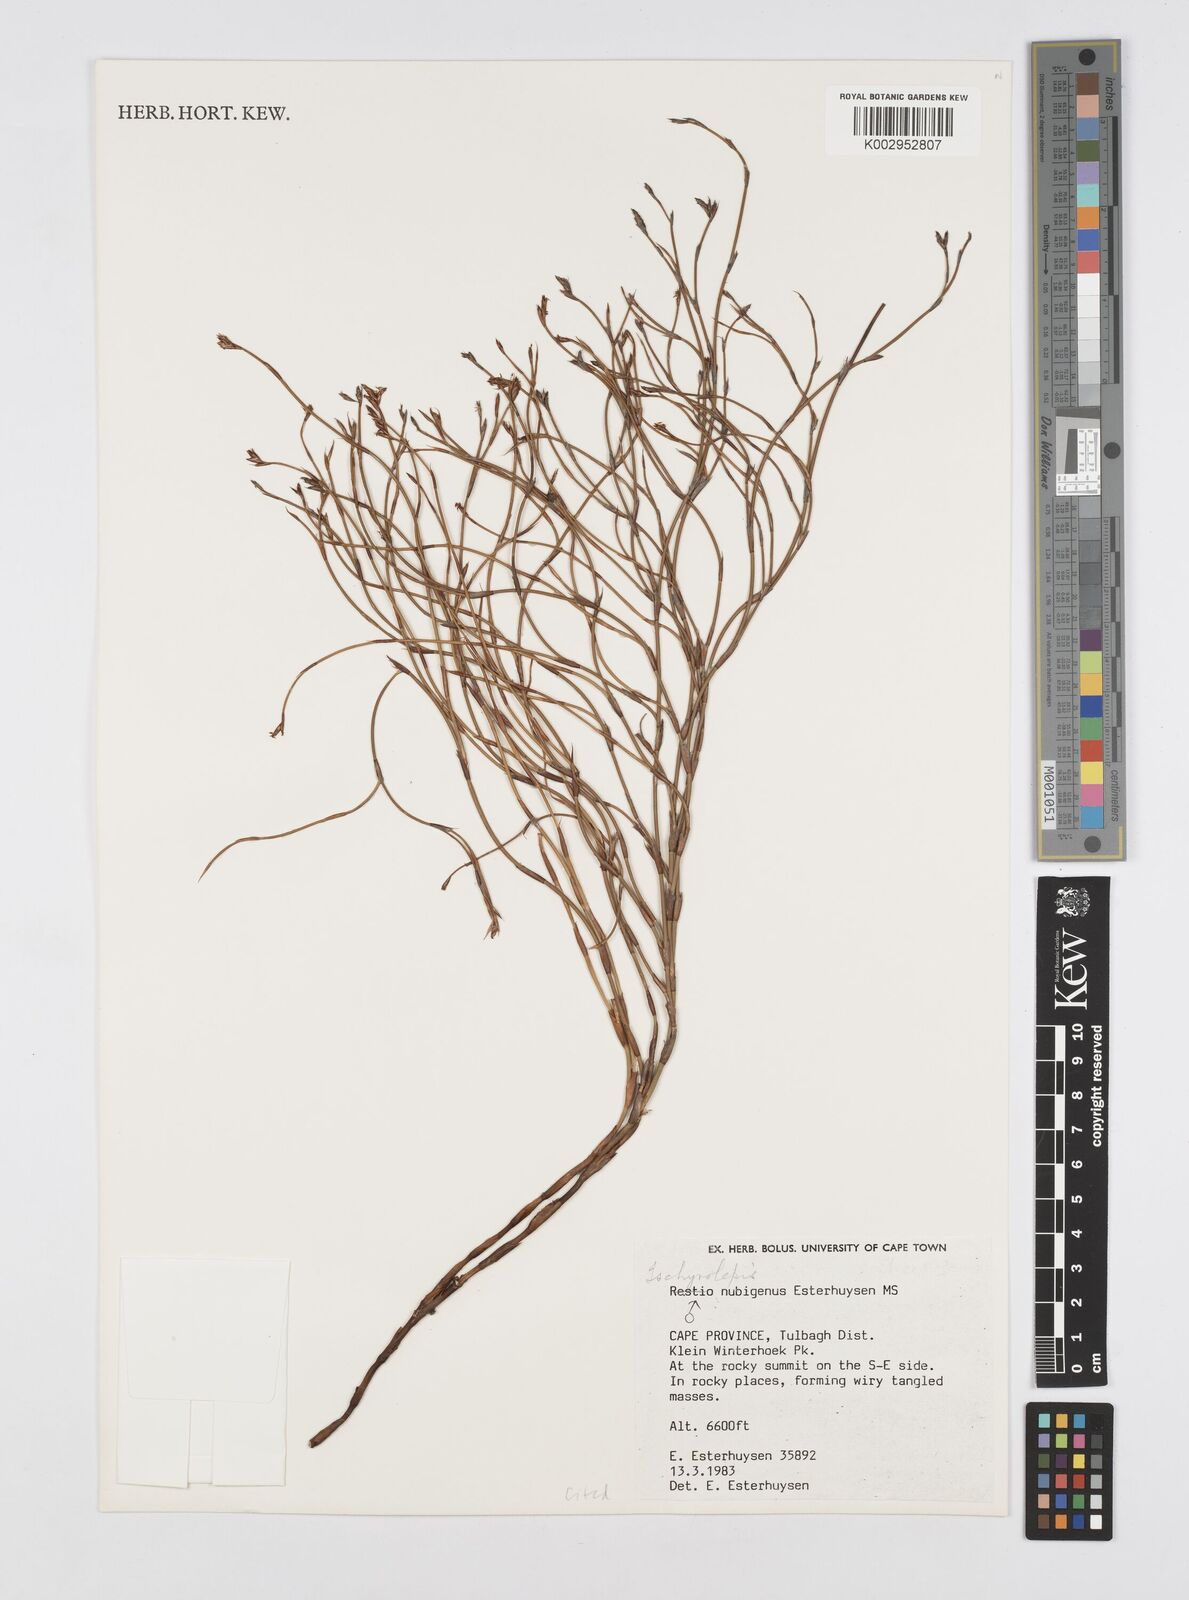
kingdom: Plantae
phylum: Tracheophyta
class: Liliopsida
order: Poales
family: Restionaceae
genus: Restio
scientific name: Restio nubigenus
